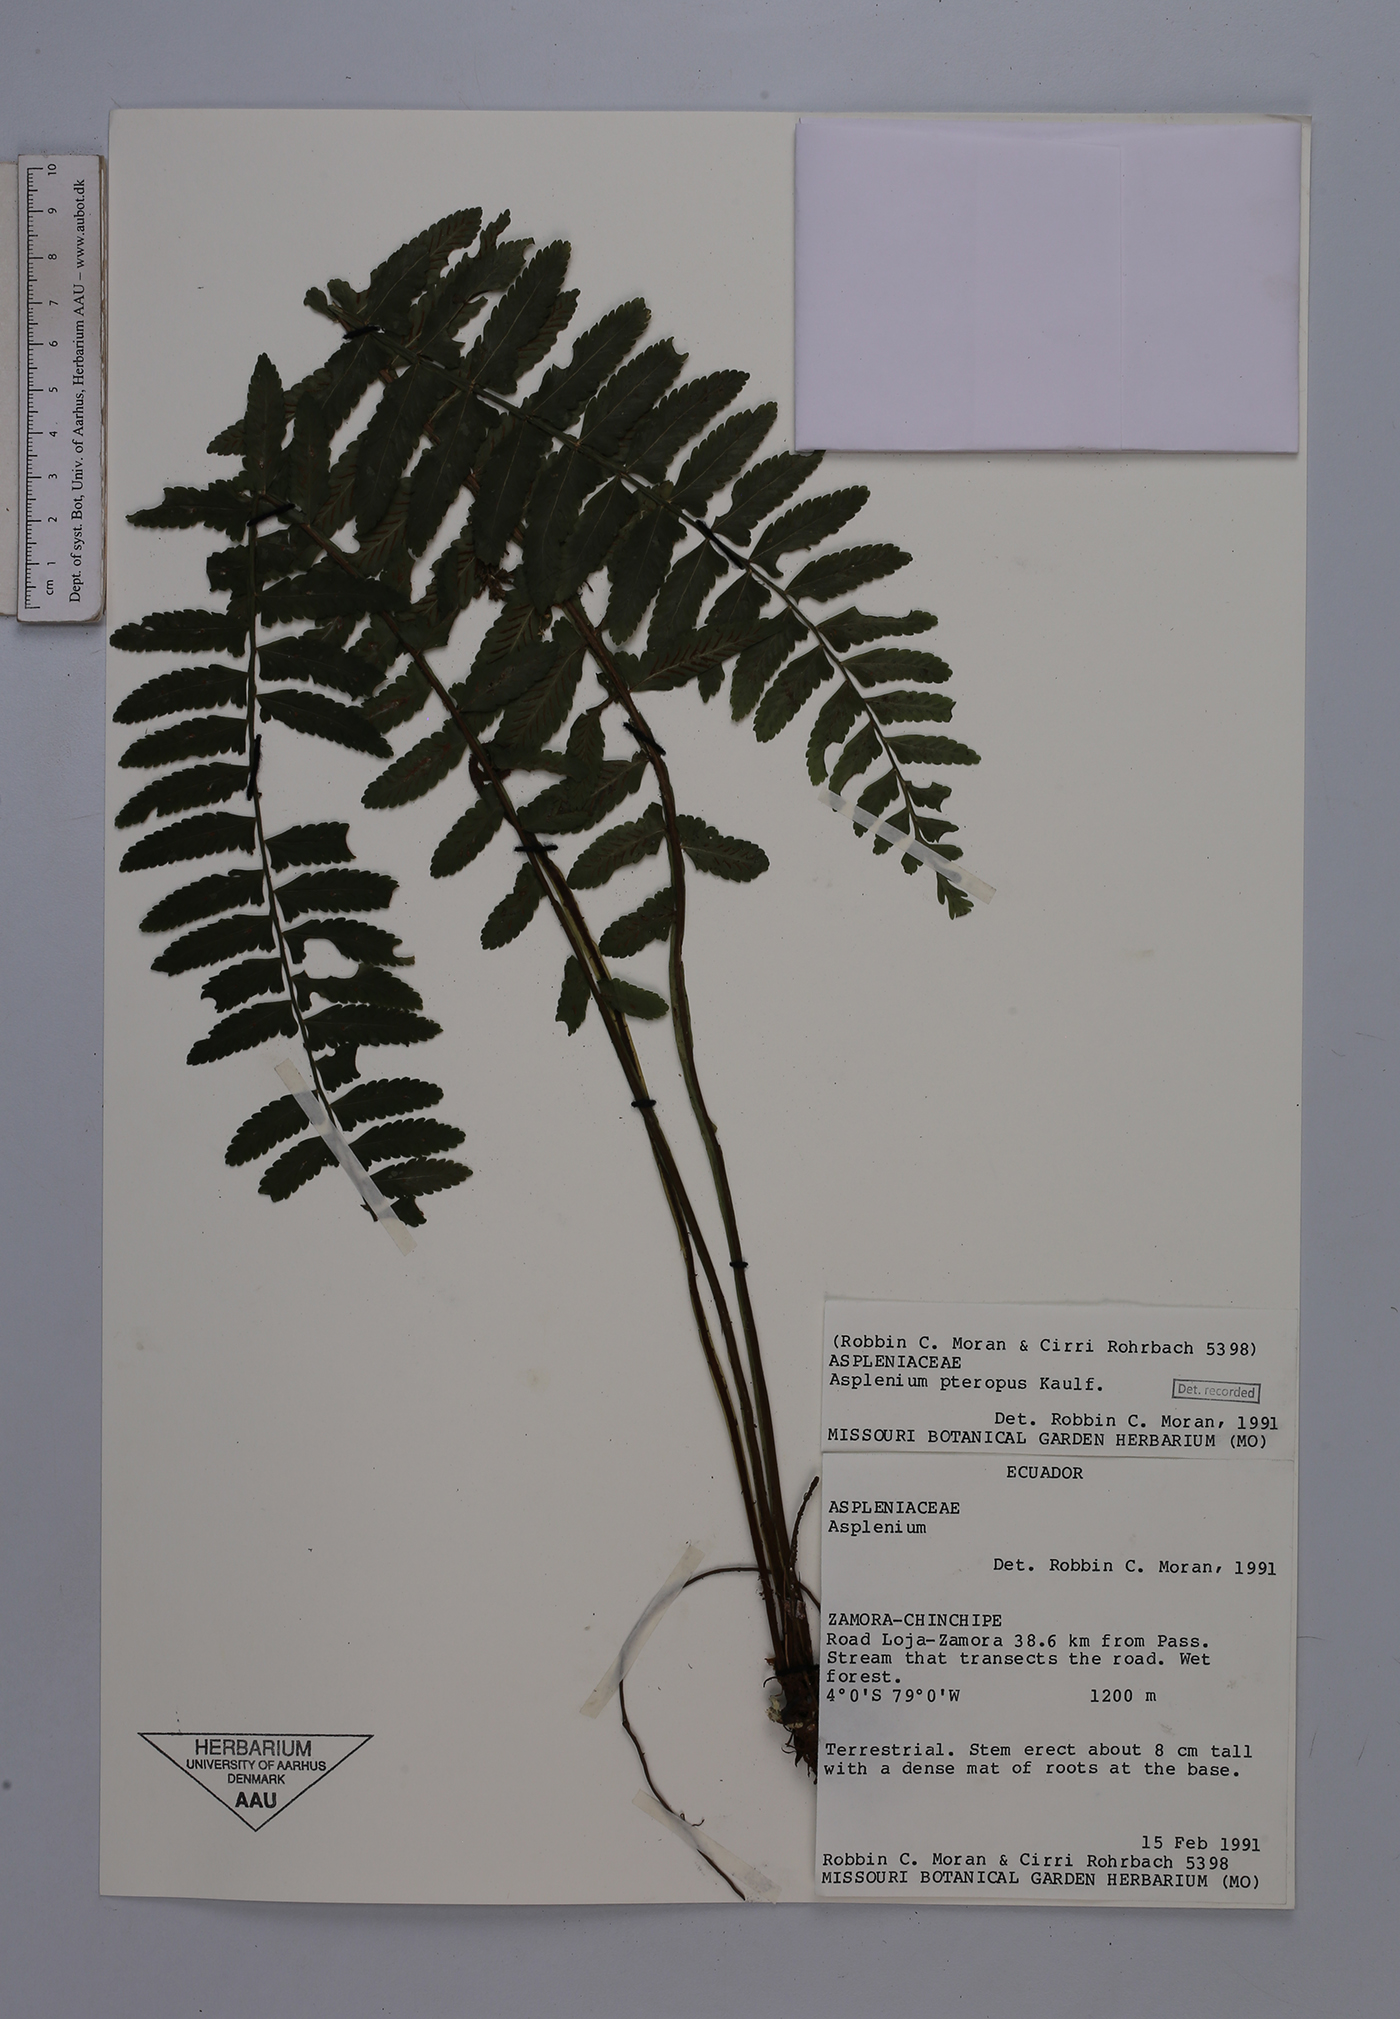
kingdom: Plantae
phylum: Tracheophyta
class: Polypodiopsida
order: Polypodiales
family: Aspleniaceae
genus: Asplenium
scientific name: Asplenium pteropus
